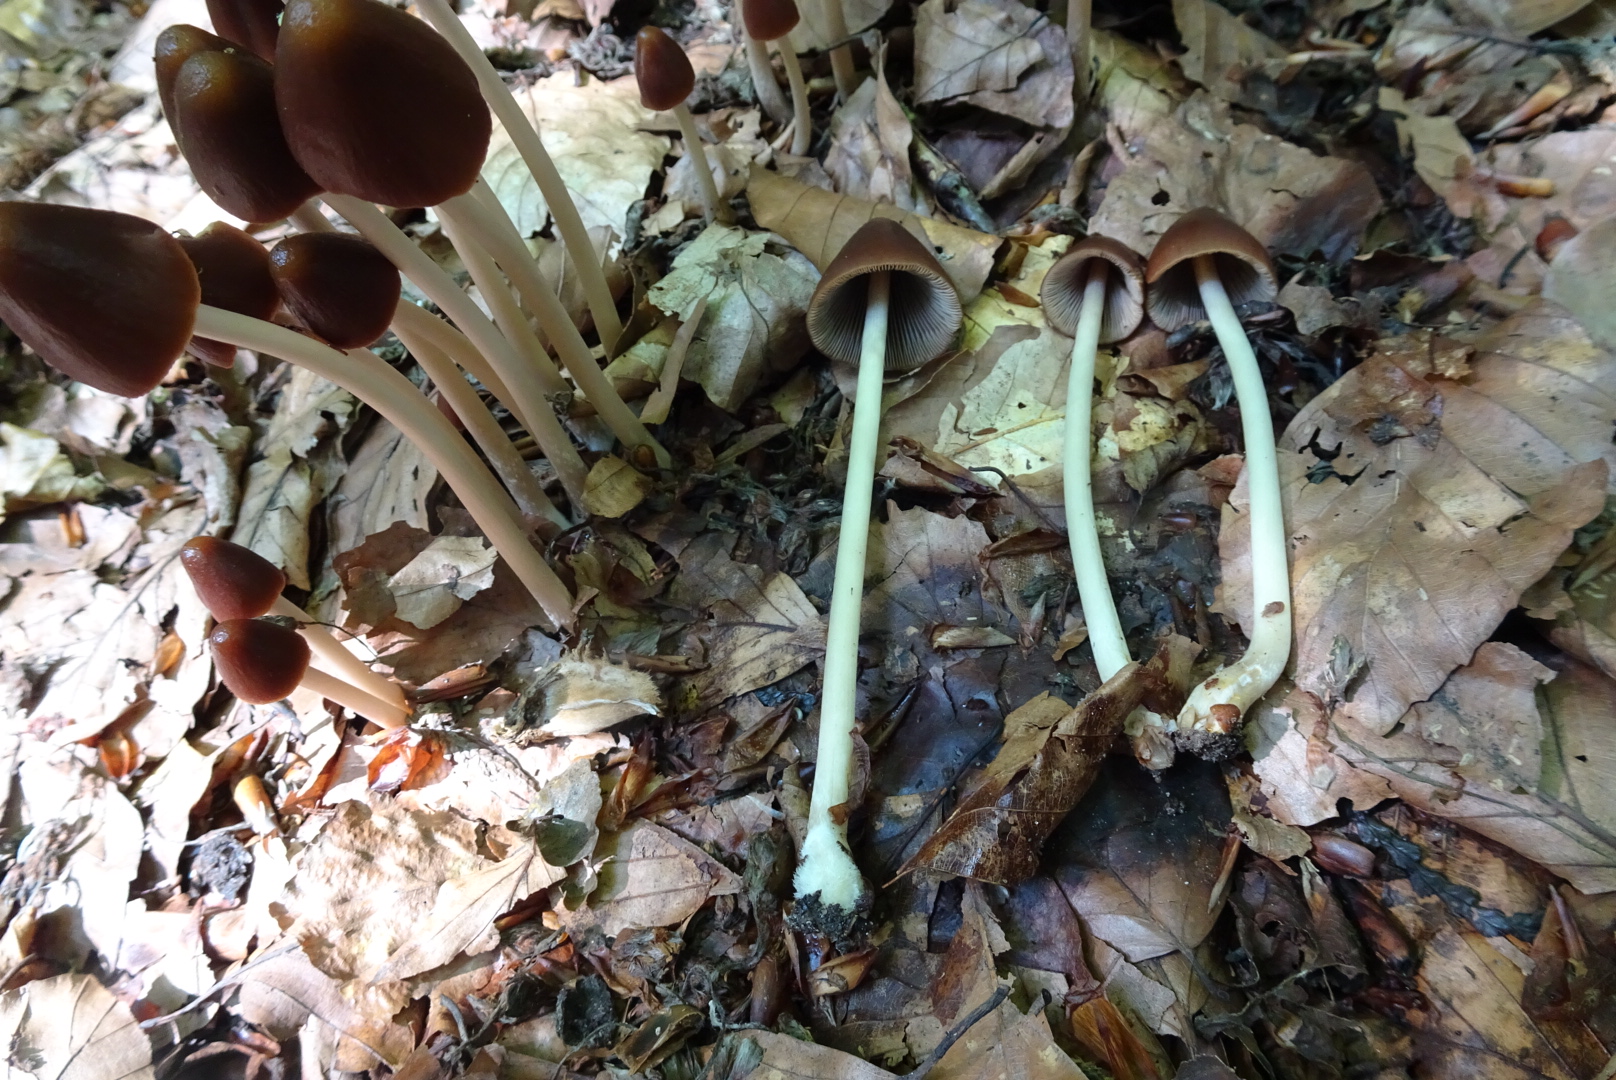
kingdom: Fungi
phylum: Basidiomycota
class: Agaricomycetes
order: Agaricales
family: Psathyrellaceae
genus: Parasola
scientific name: Parasola conopilea
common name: kegle-hjulhat
